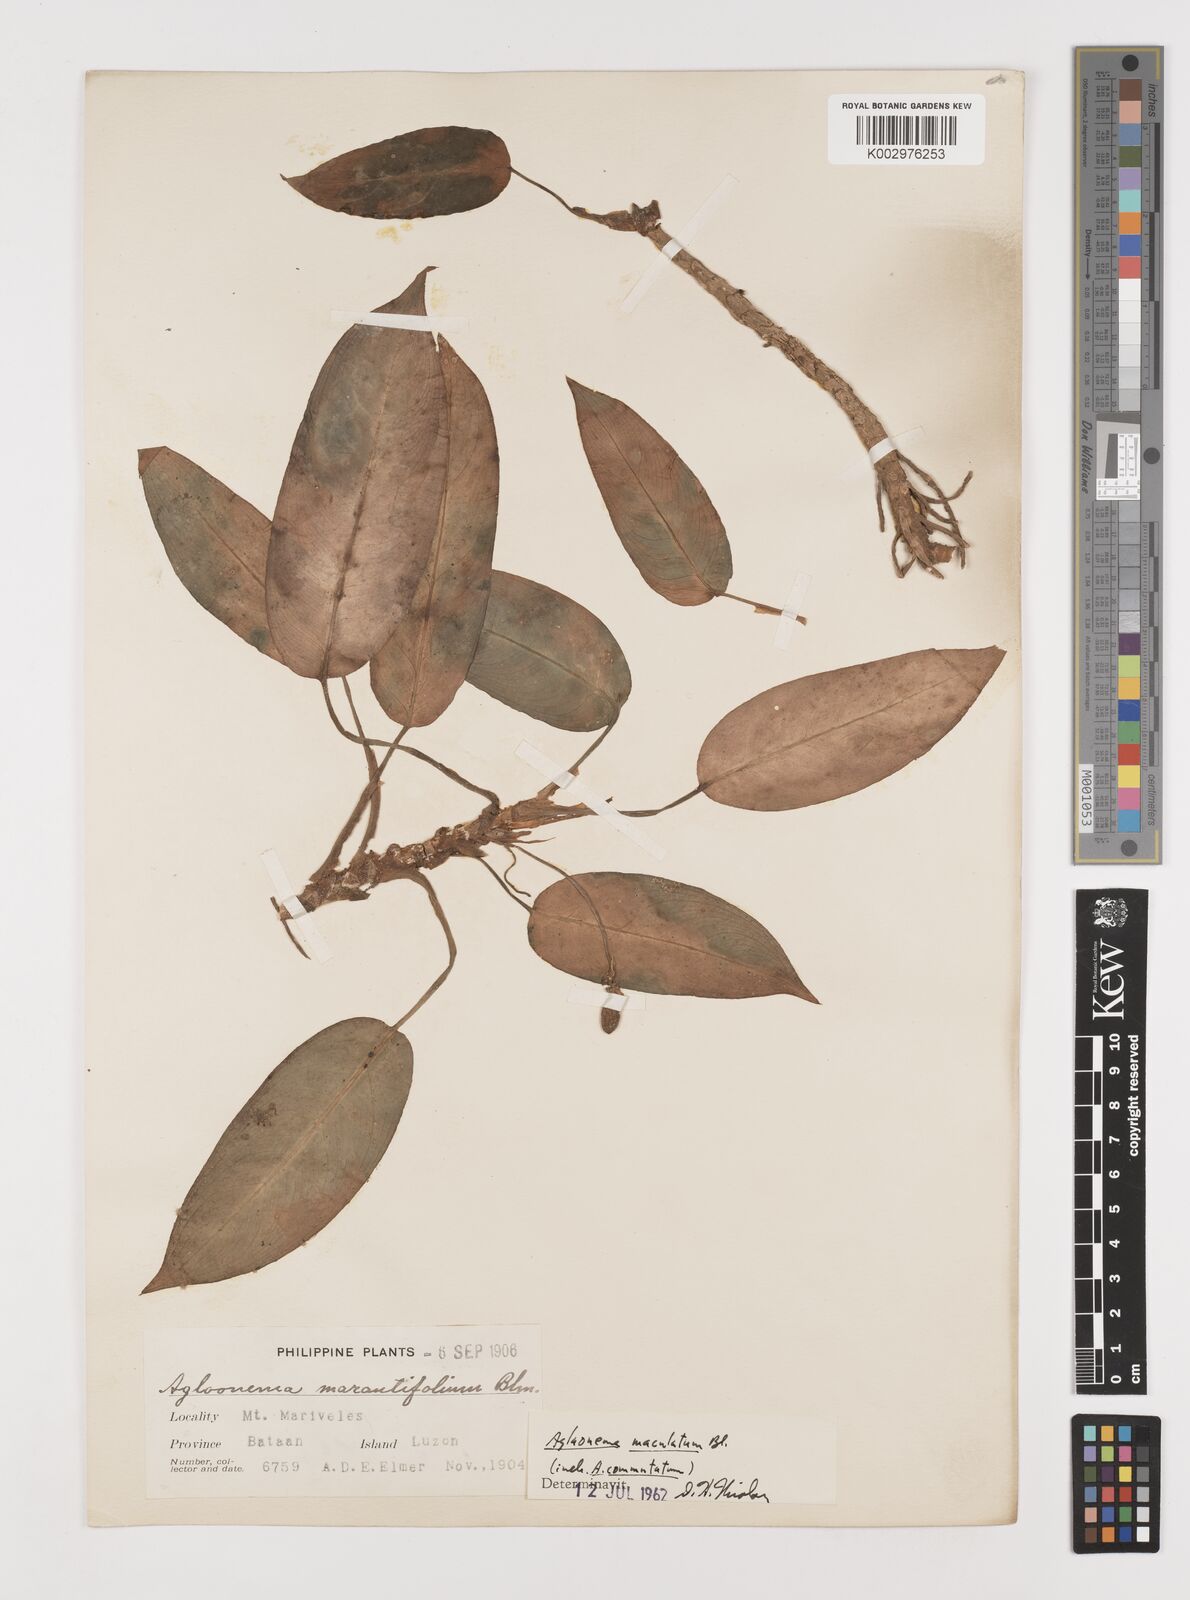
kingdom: Plantae
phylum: Tracheophyta
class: Liliopsida
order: Alismatales
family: Araceae
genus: Aglaonema
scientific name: Aglaonema commutatum
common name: Philippine evergreen
